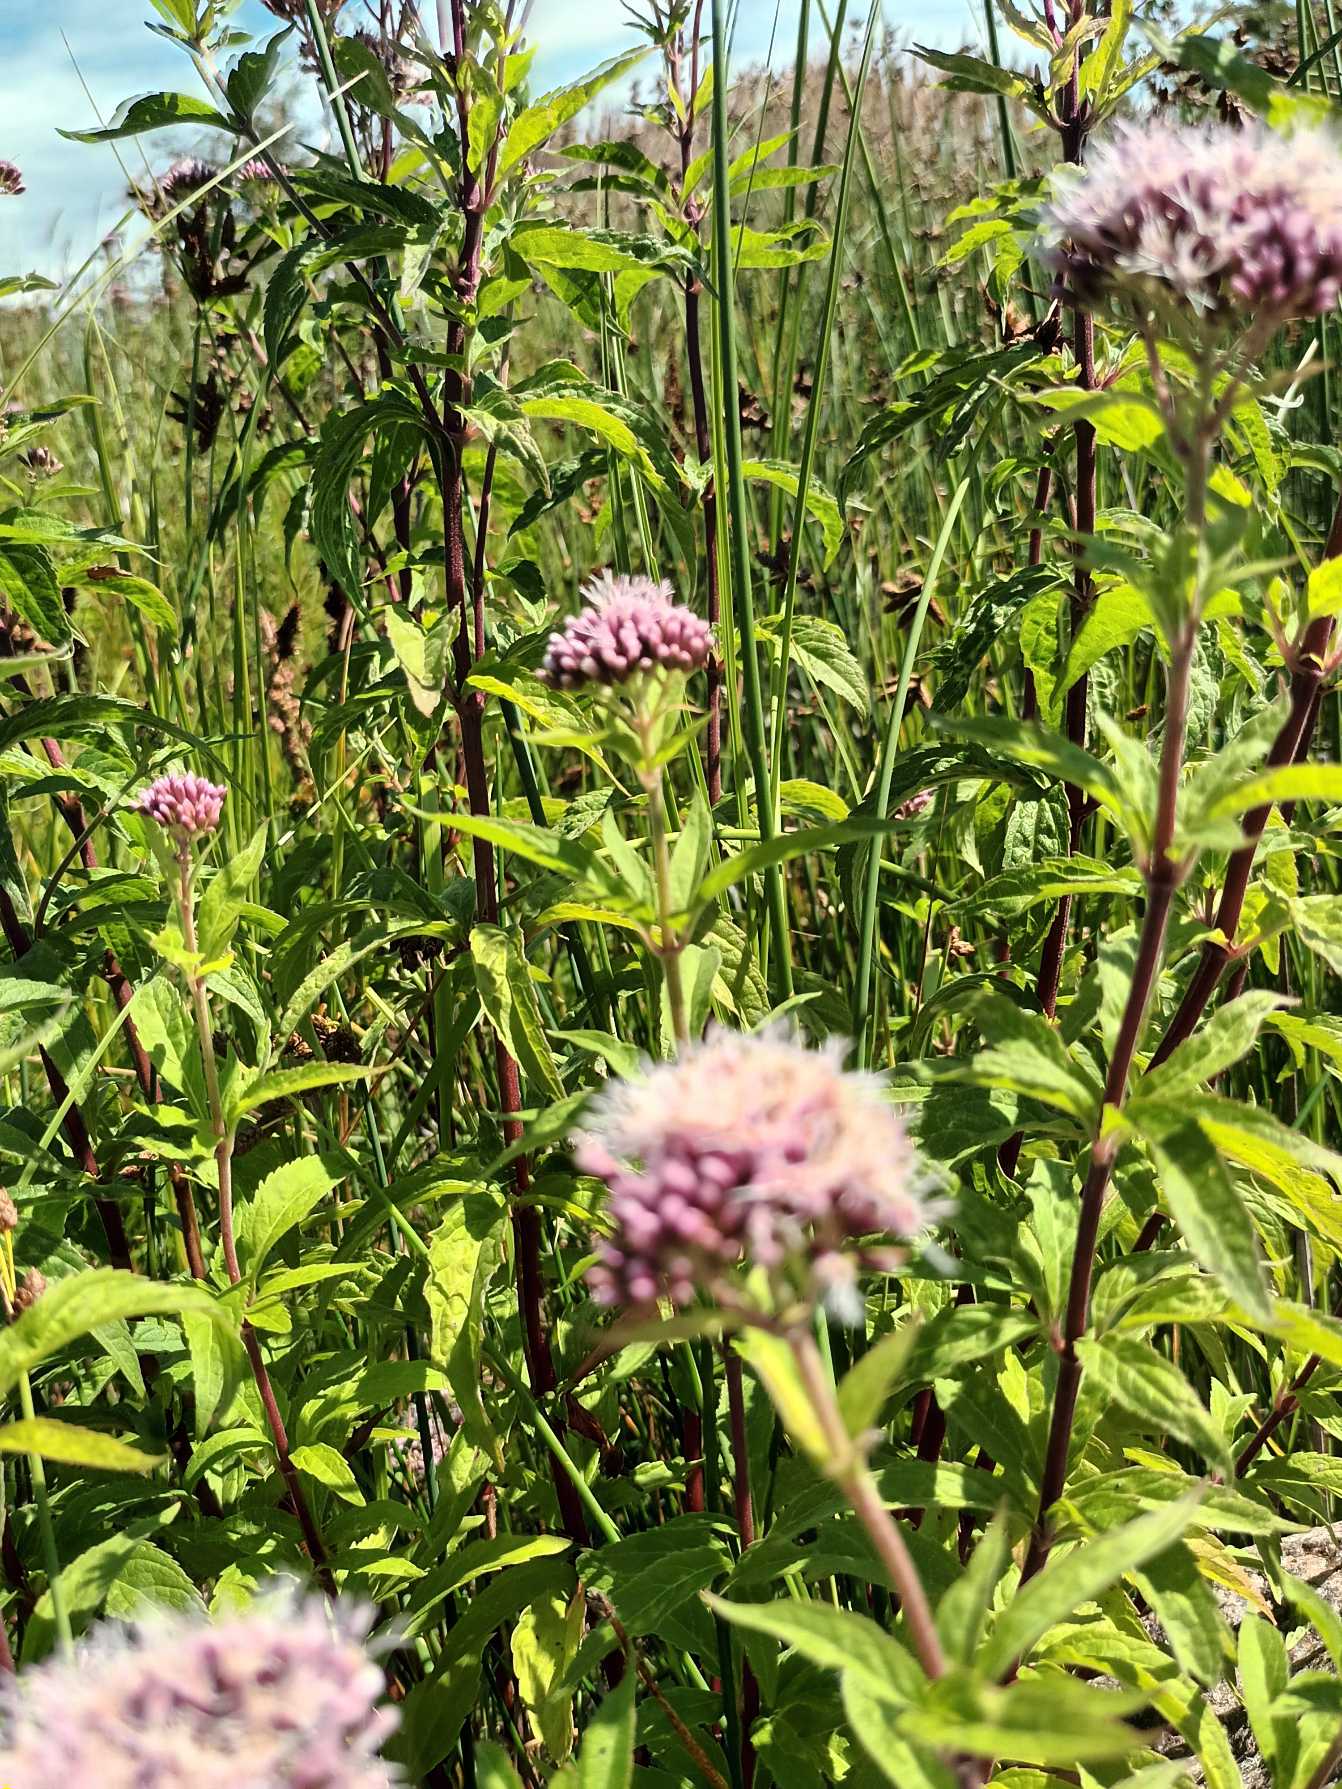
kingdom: Plantae
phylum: Tracheophyta
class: Magnoliopsida
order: Asterales
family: Asteraceae
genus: Eupatorium
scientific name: Eupatorium cannabinum
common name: Hjortetrøst
